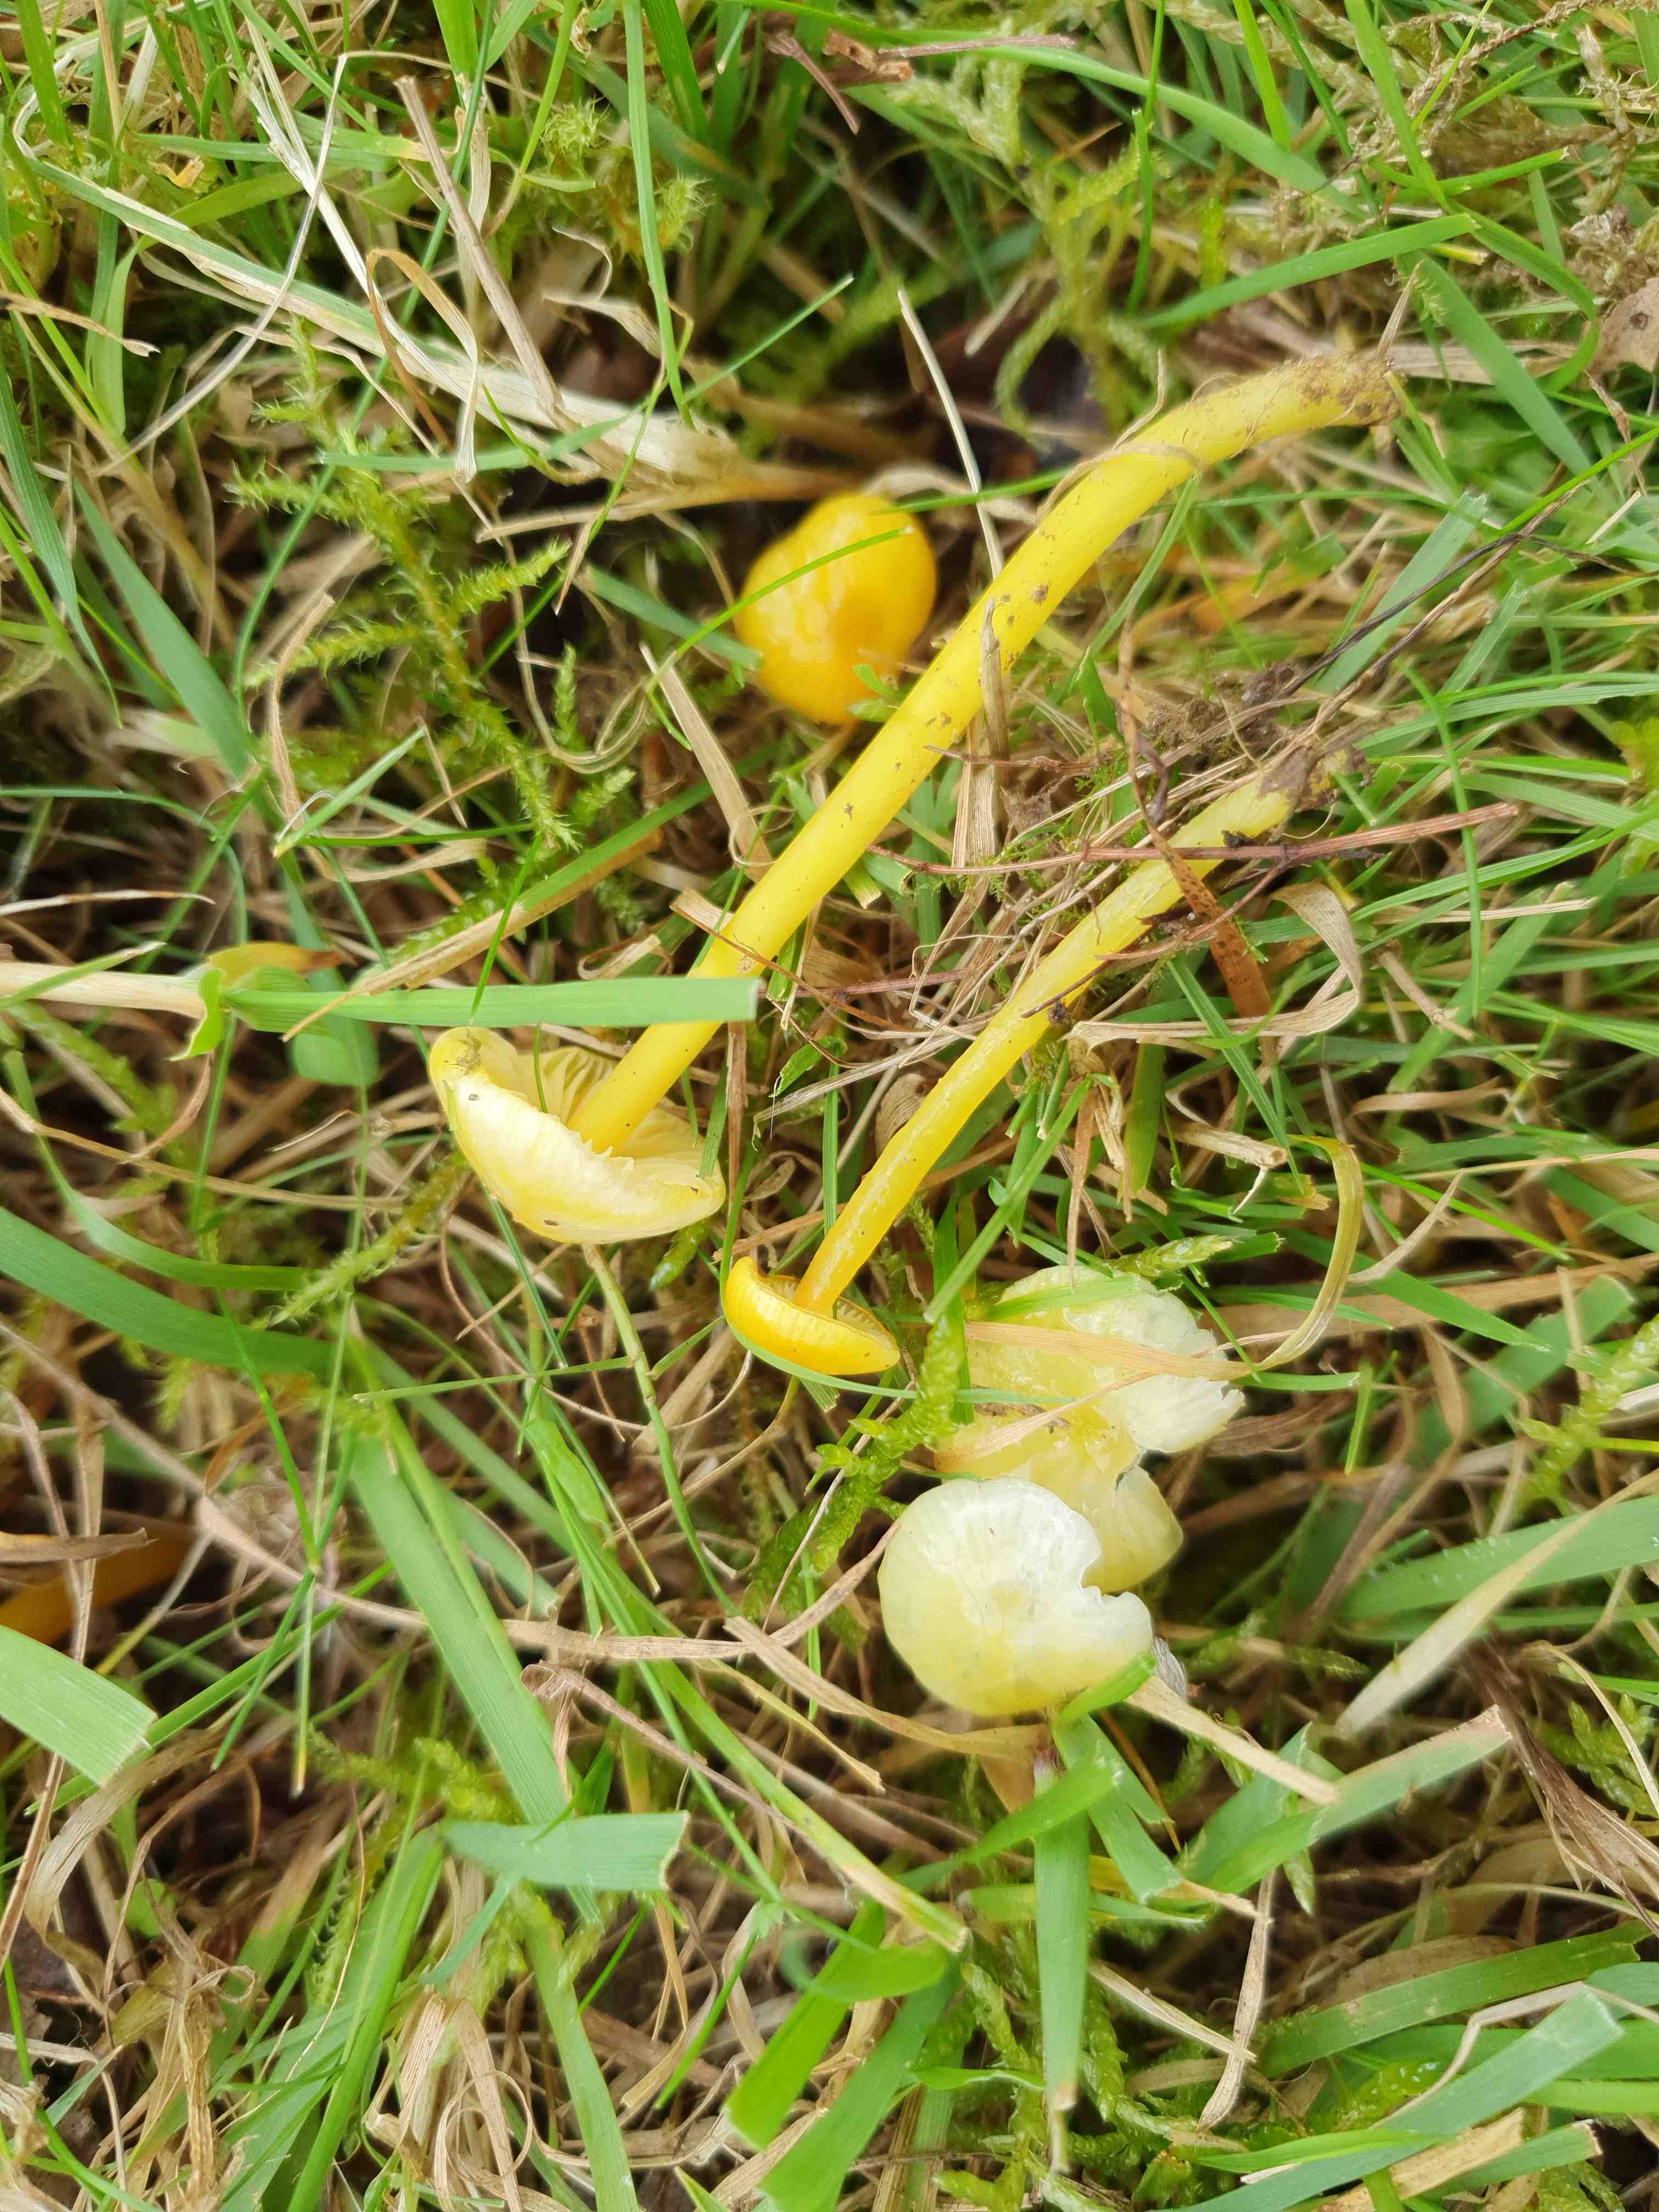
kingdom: Fungi
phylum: Basidiomycota
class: Agaricomycetes
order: Agaricales
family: Hygrophoraceae
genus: Hygrocybe
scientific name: Hygrocybe glutinipes
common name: slimstokket vokshat
